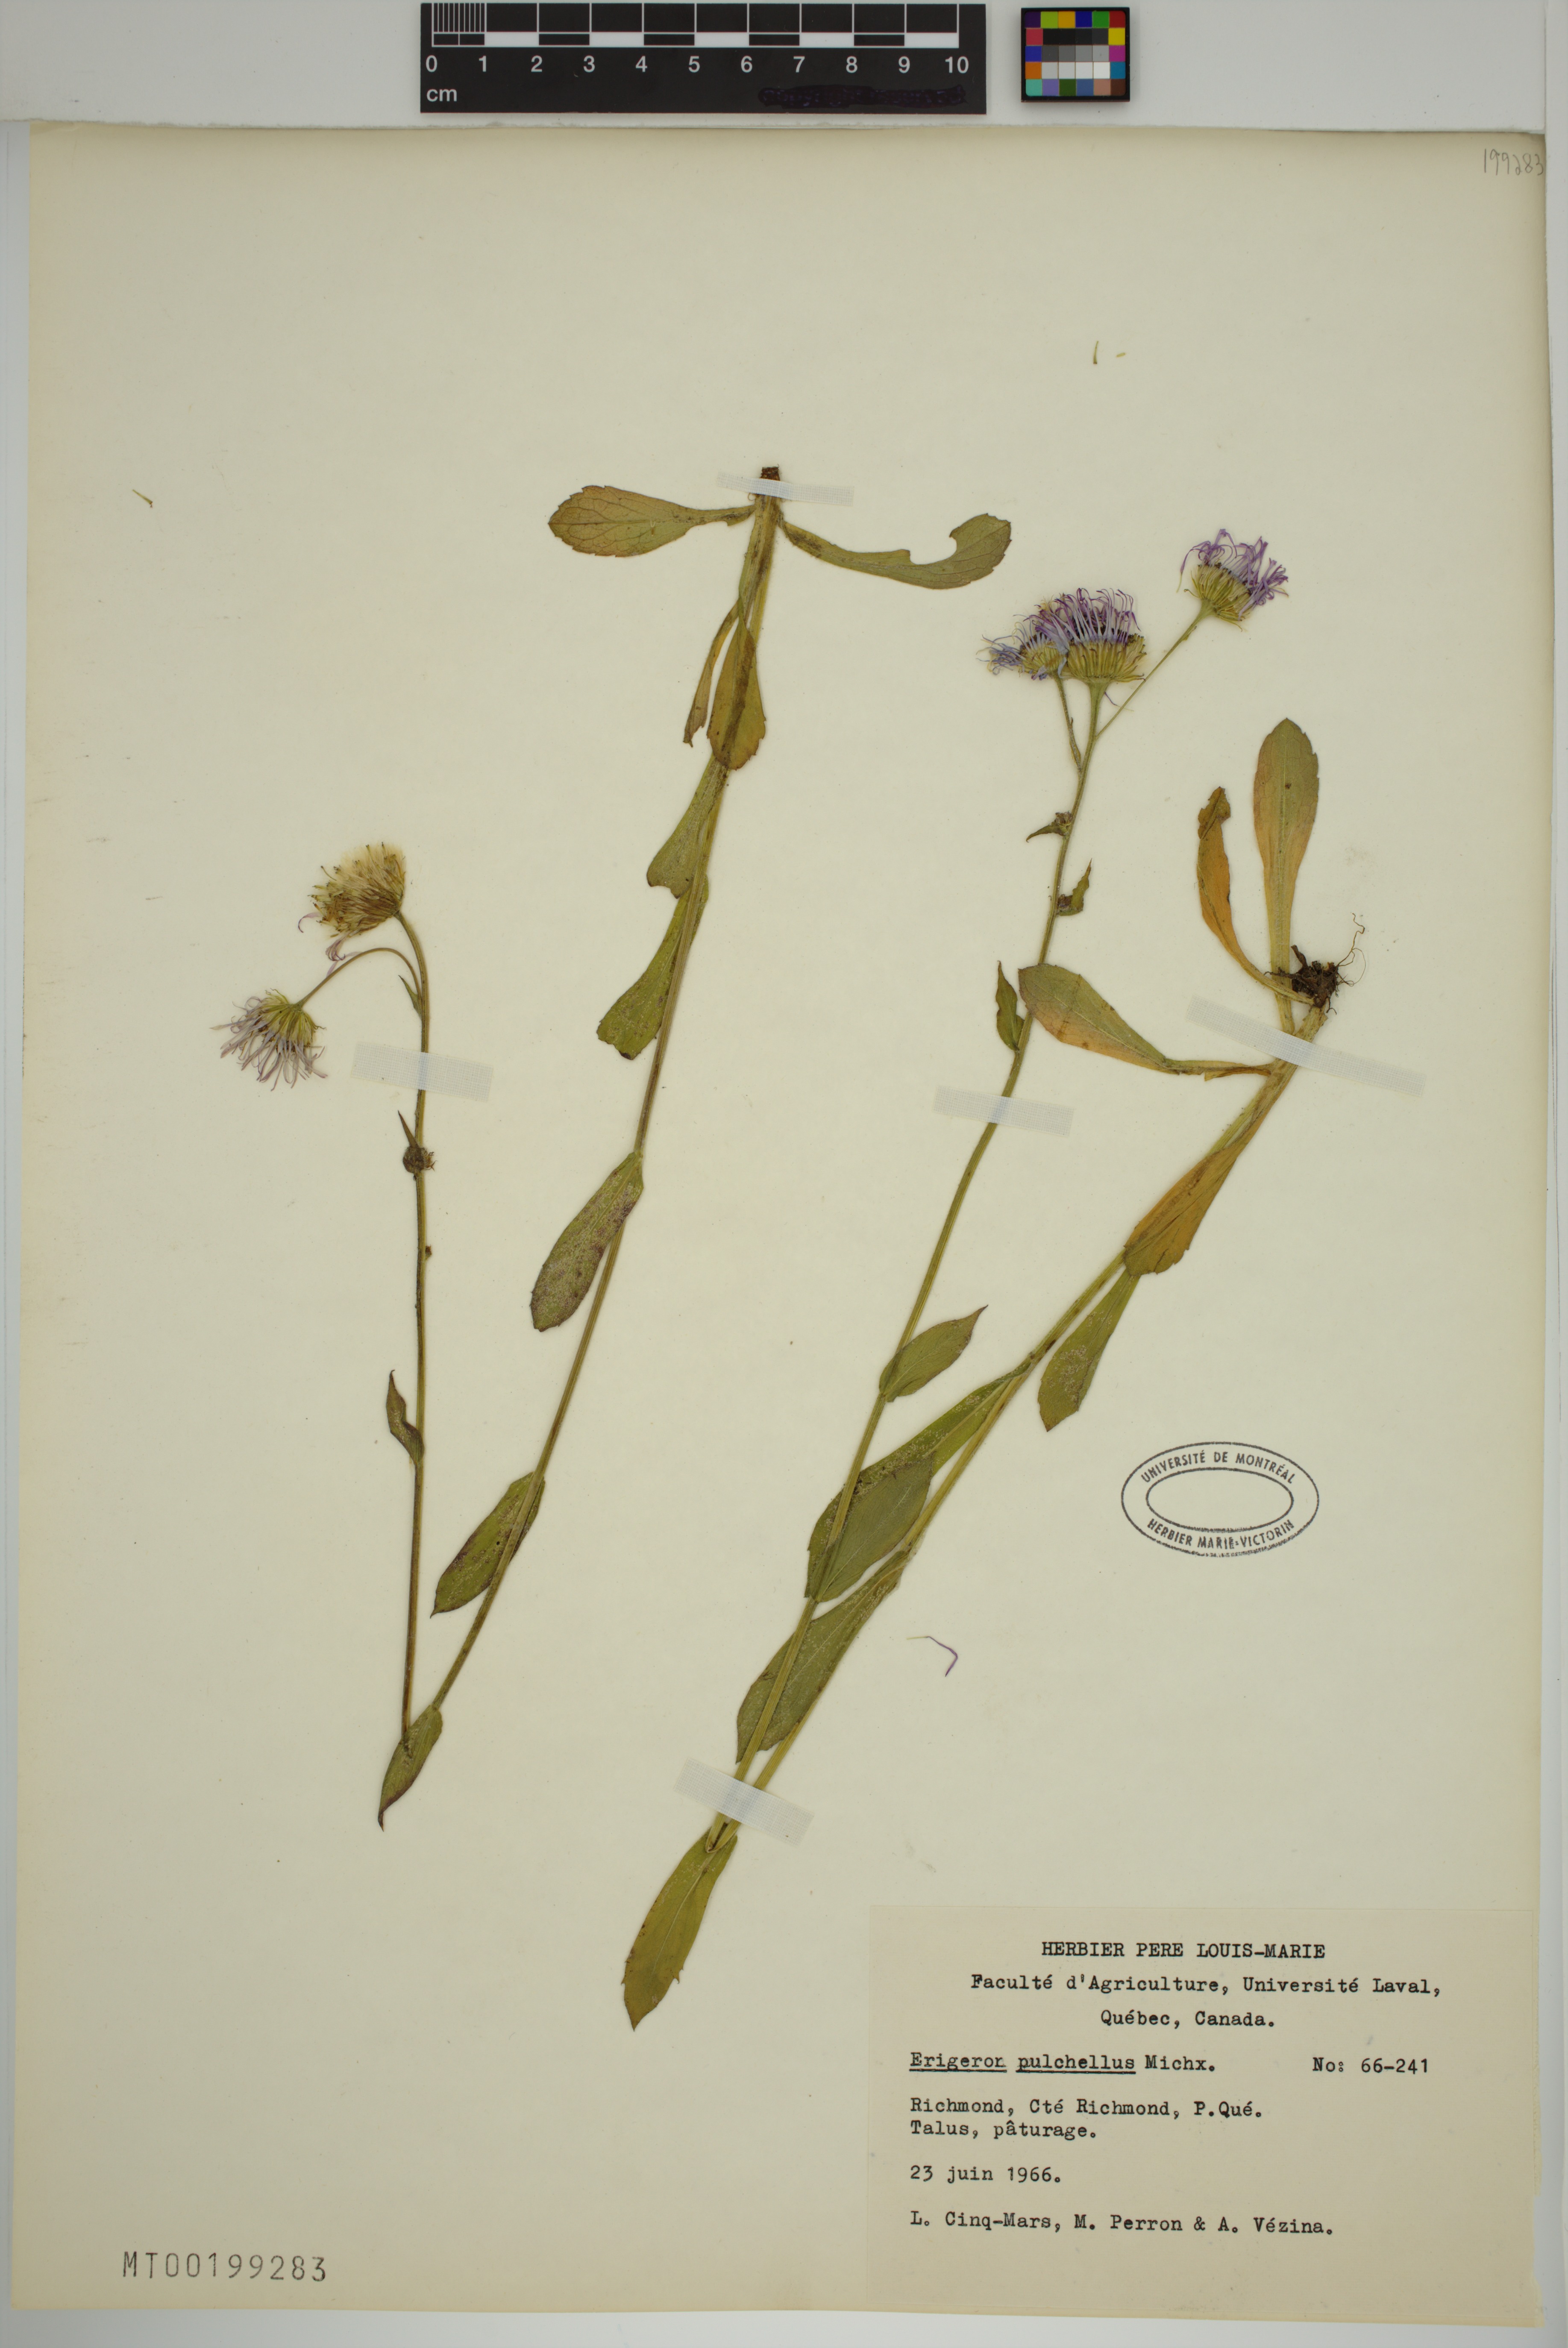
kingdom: Plantae
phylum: Tracheophyta
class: Magnoliopsida
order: Asterales
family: Asteraceae
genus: Erigeron
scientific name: Erigeron pulchellus
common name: Hairy fleabane
